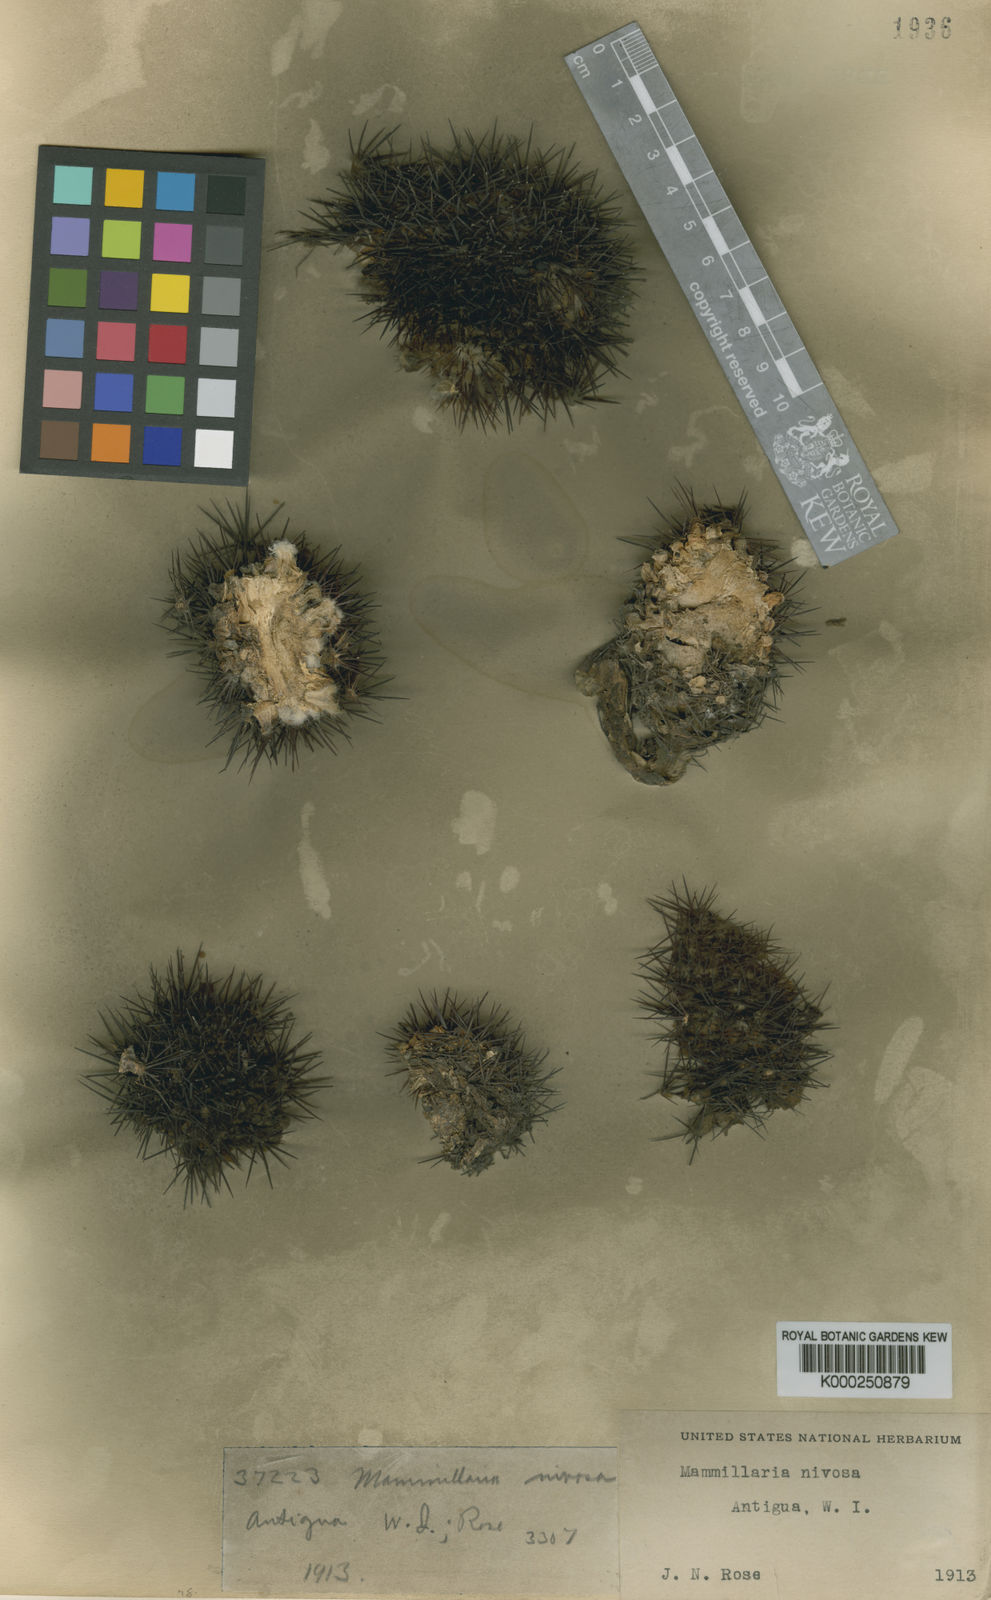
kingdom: Plantae
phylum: Tracheophyta
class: Magnoliopsida
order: Caryophyllales
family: Cactaceae
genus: Mammillaria
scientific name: Mammillaria nivosa
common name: Woolly nipple cactus
